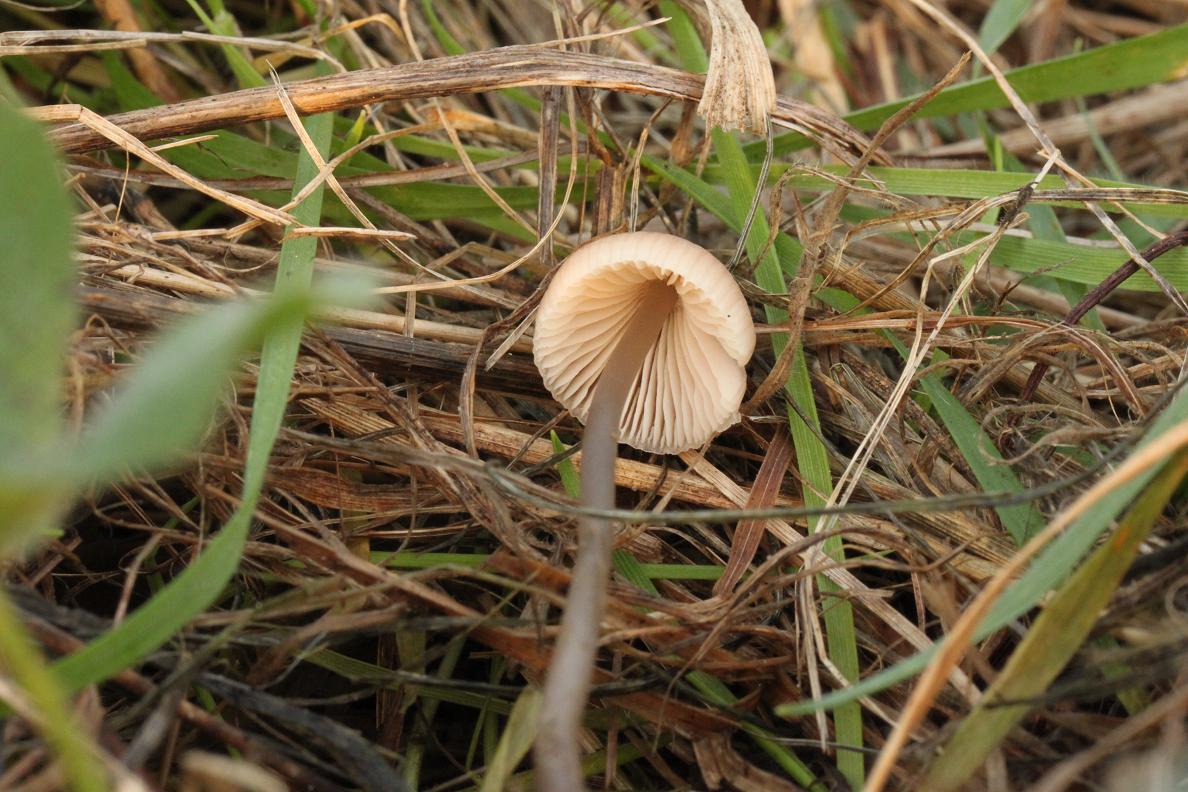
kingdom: Fungi
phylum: Basidiomycota
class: Agaricomycetes
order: Agaricales
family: Mycenaceae
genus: Mycena
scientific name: Mycena
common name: huesvamp
